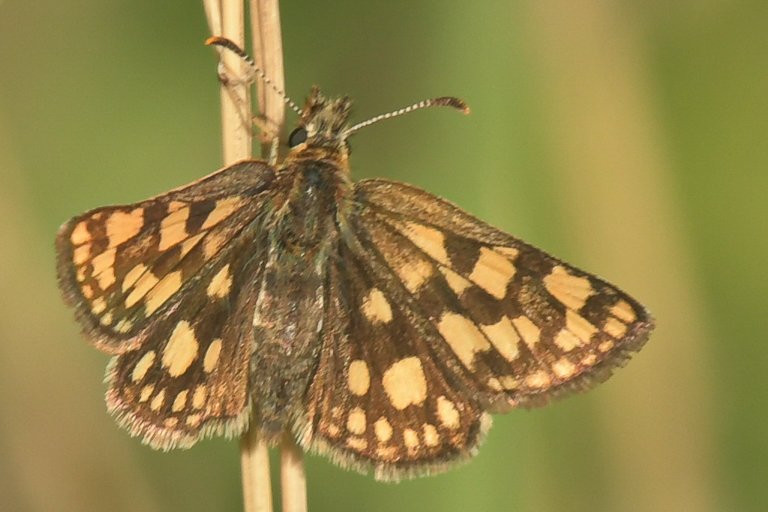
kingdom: Animalia
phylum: Arthropoda
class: Insecta
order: Lepidoptera
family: Hesperiidae
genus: Carterocephalus
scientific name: Carterocephalus palaemon
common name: Chequered Skipper
